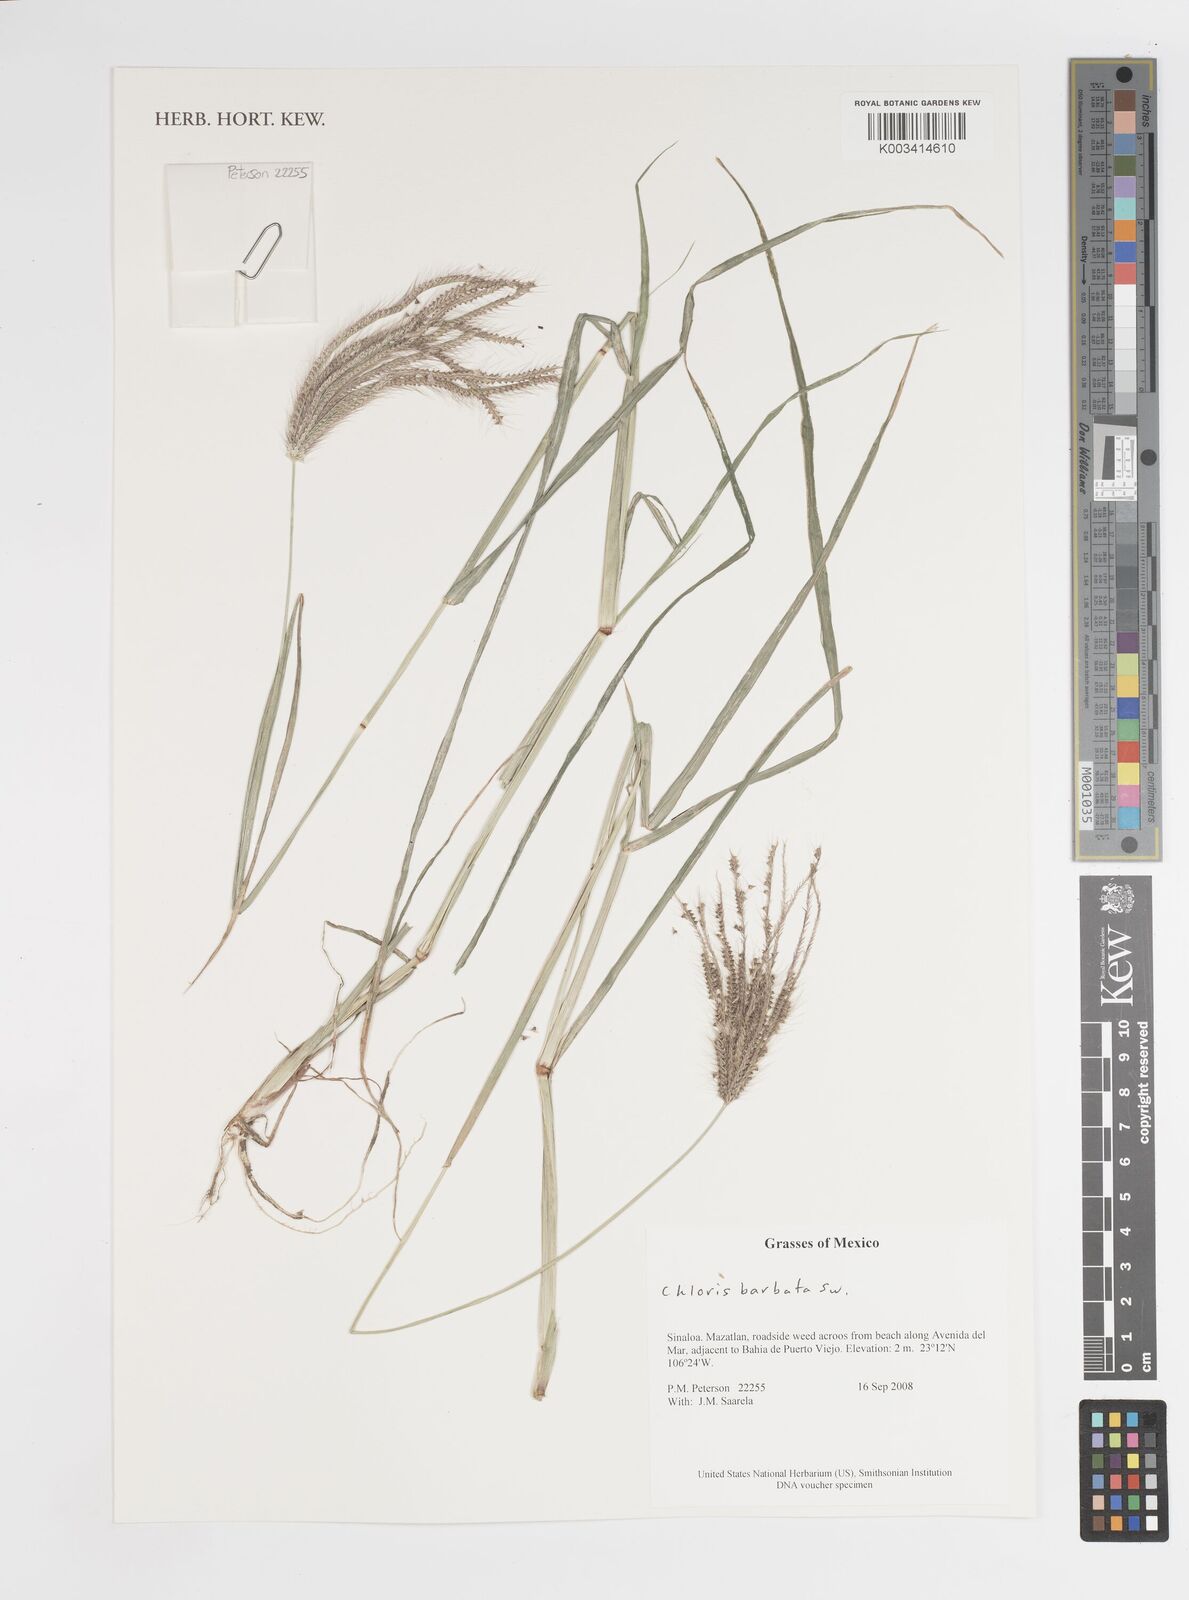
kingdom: Plantae
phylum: Tracheophyta
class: Liliopsida
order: Poales
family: Poaceae
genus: Stapfochloa
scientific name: Stapfochloa elata
